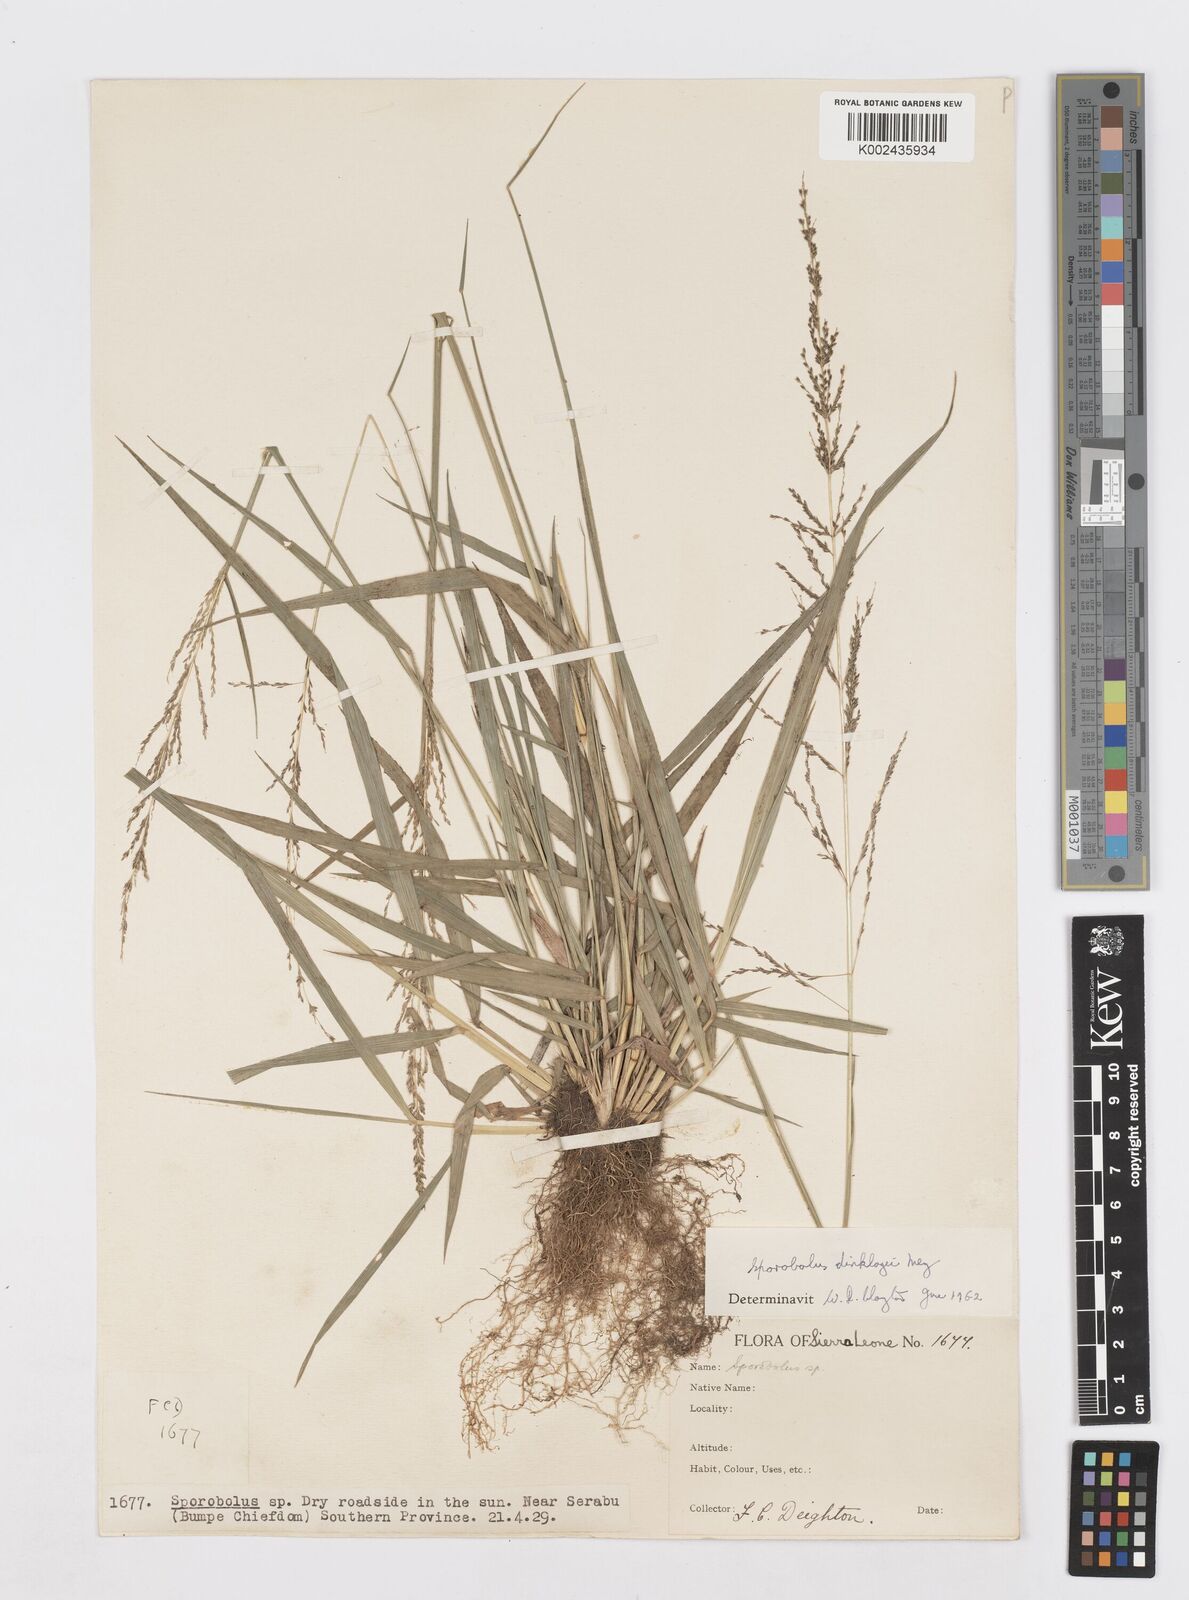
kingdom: Plantae
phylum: Tracheophyta
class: Liliopsida
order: Poales
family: Poaceae
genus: Sporobolus
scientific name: Sporobolus dinklagei
